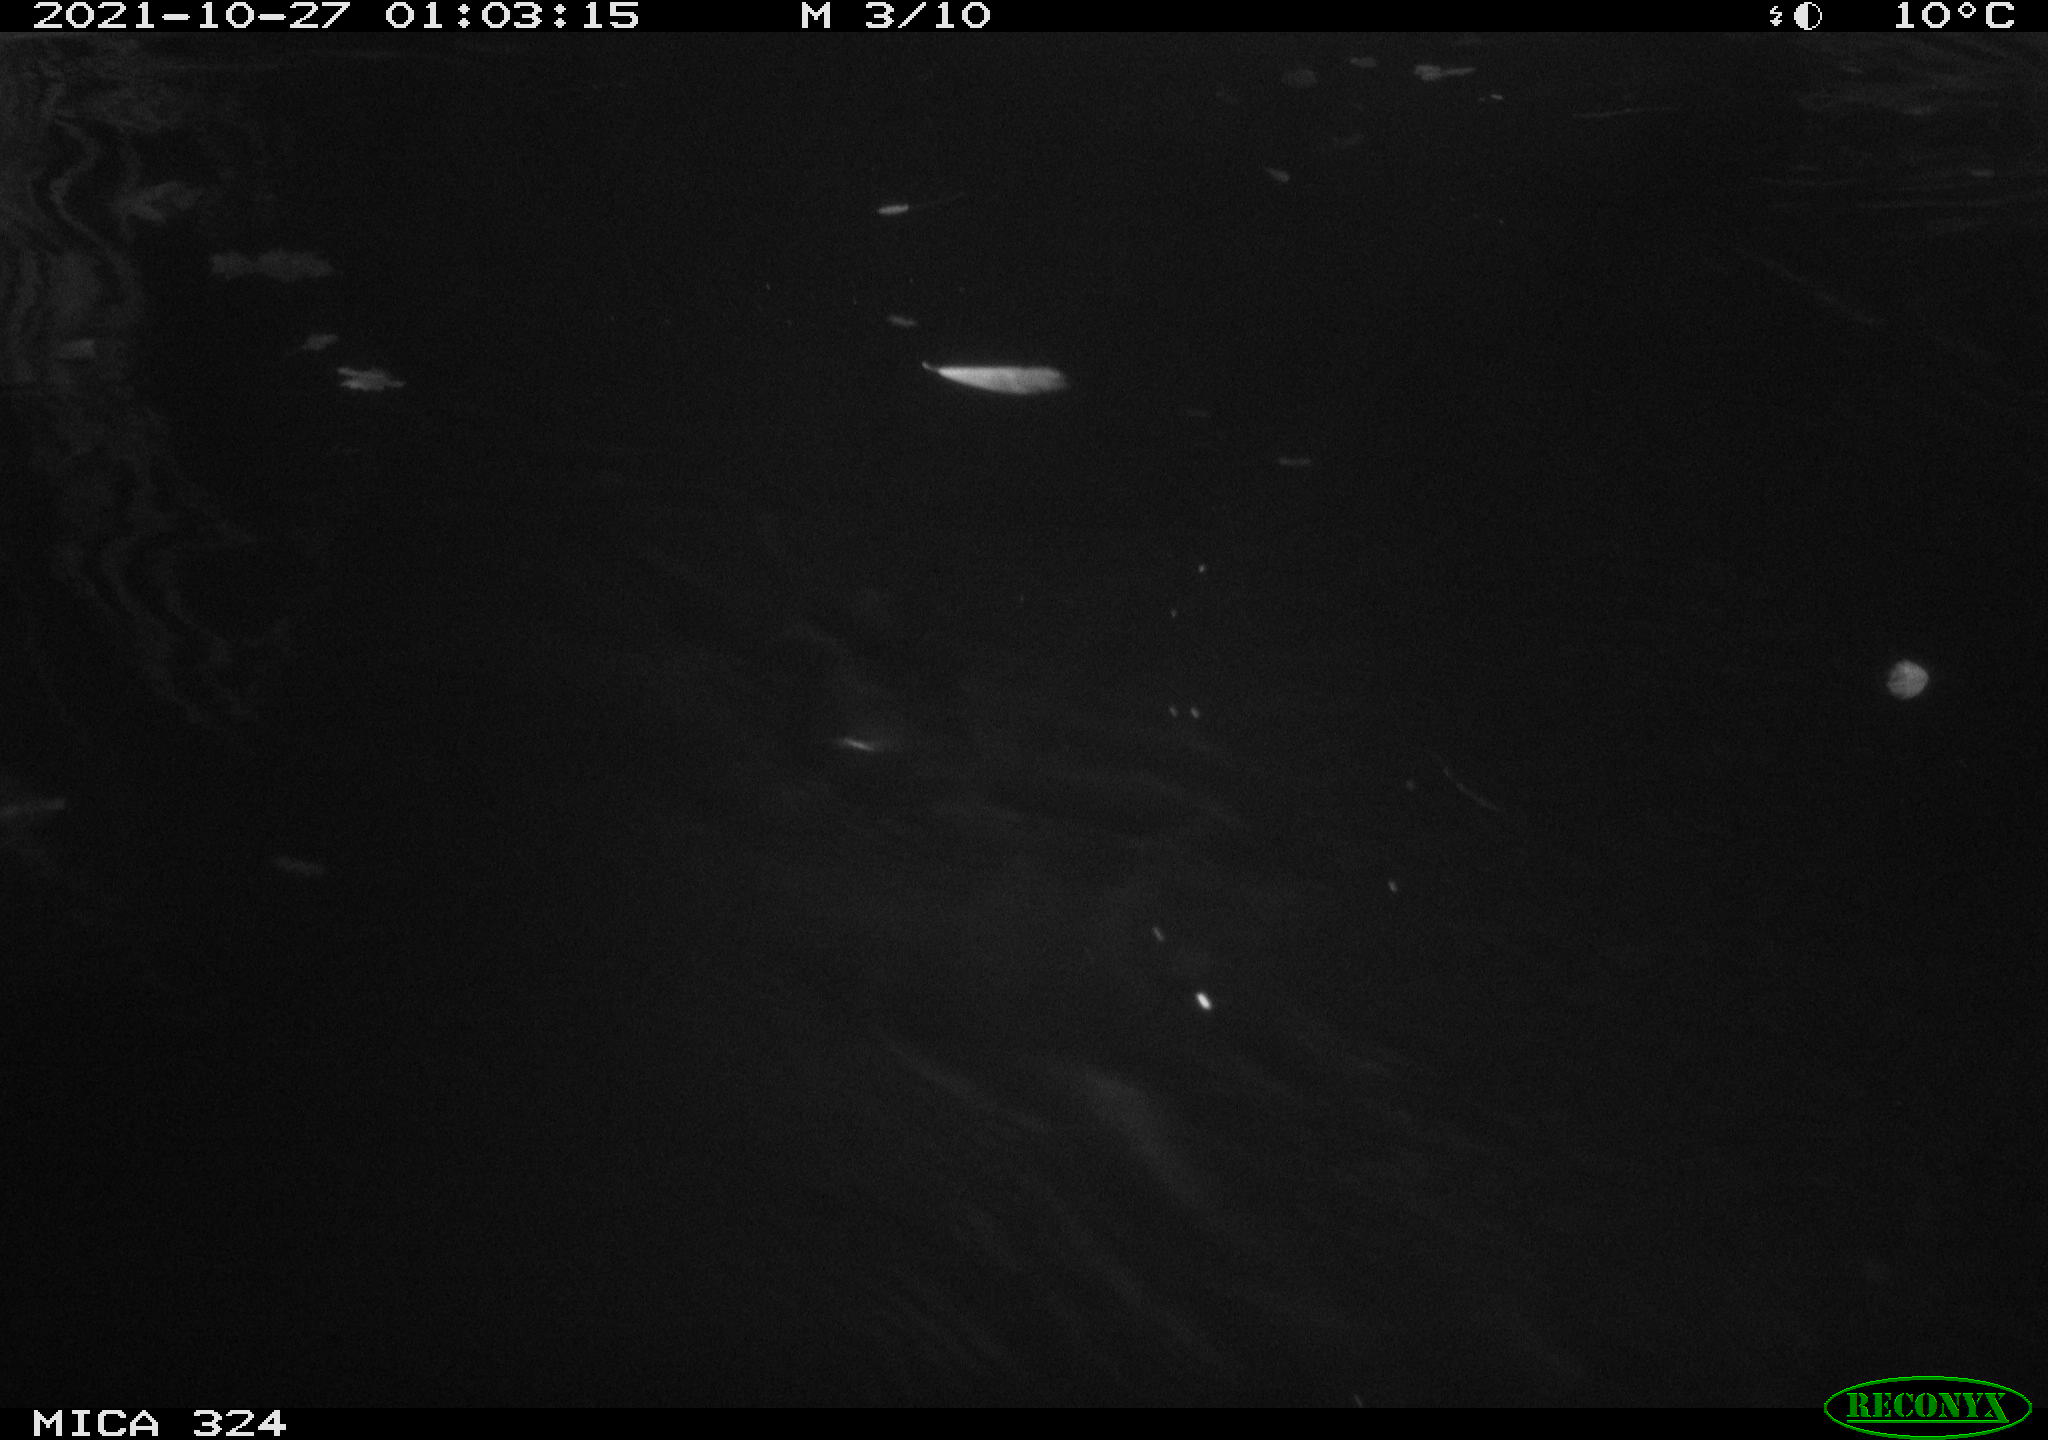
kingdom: Animalia
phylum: Chordata
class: Mammalia
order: Rodentia
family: Cricetidae
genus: Ondatra
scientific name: Ondatra zibethicus
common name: Muskrat
